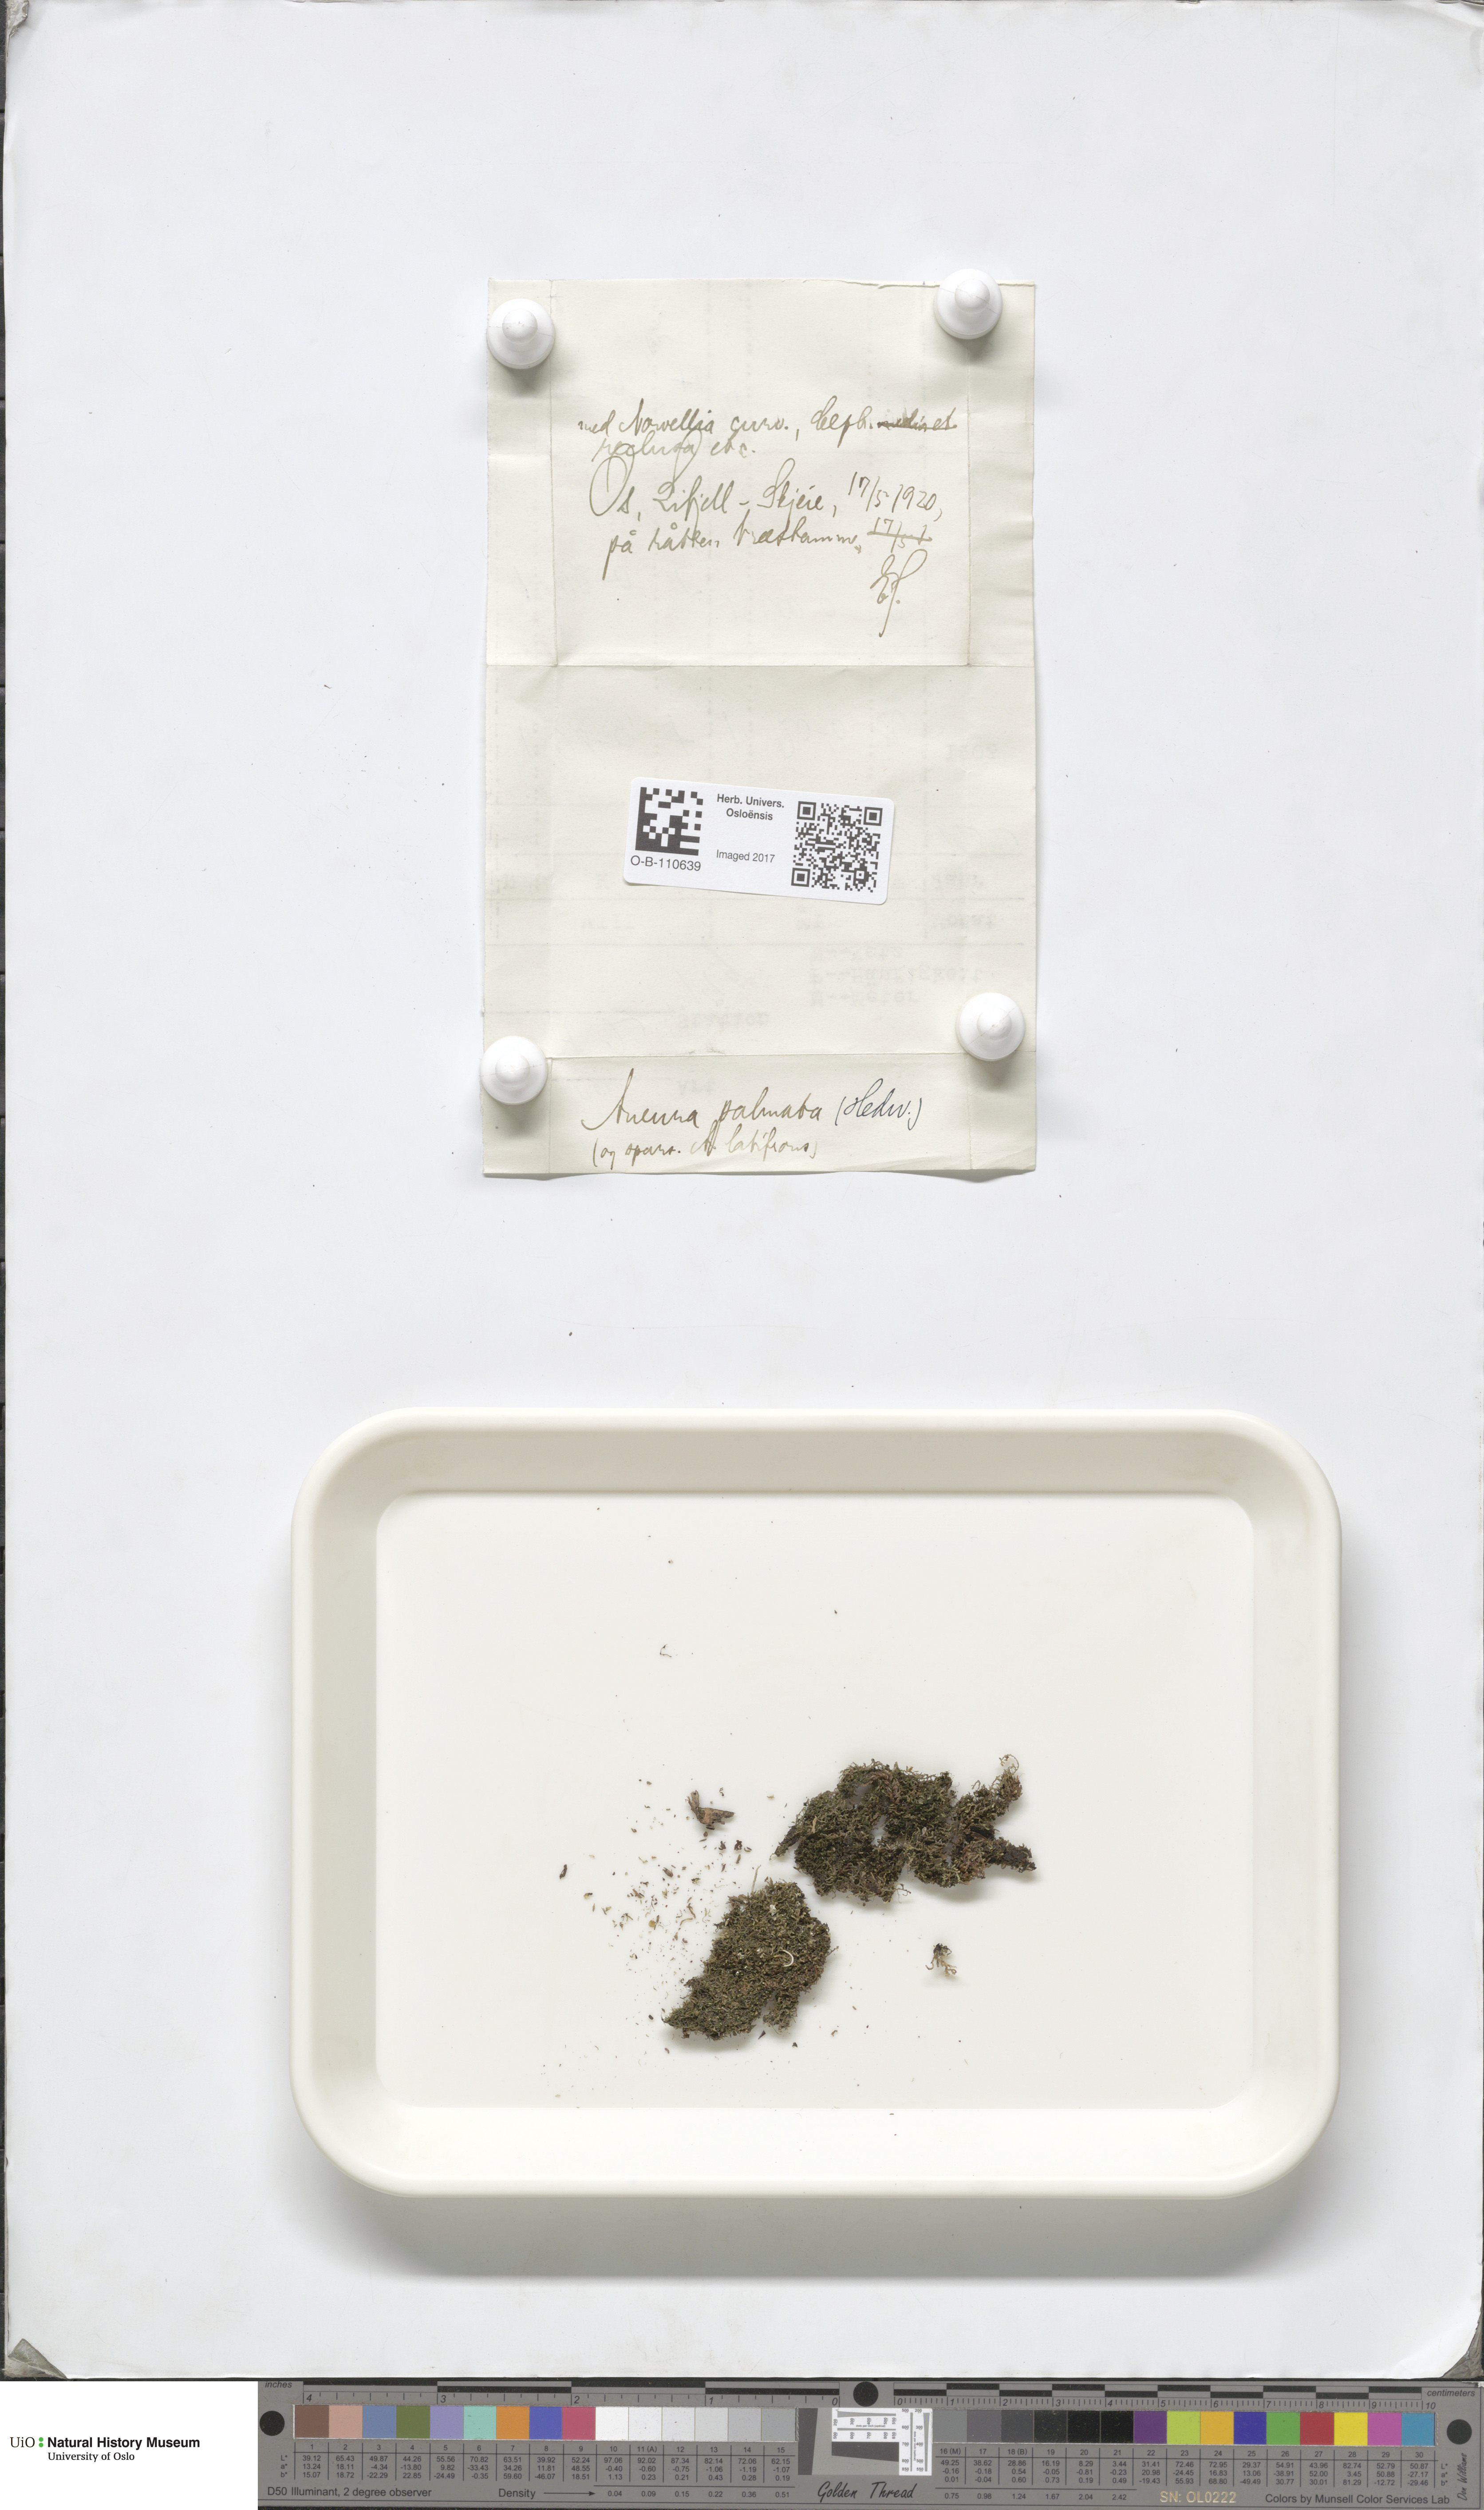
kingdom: Plantae
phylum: Marchantiophyta
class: Jungermanniopsida
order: Metzgeriales
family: Aneuraceae
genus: Riccardia
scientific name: Riccardia palmata
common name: Palmate germanderwort
